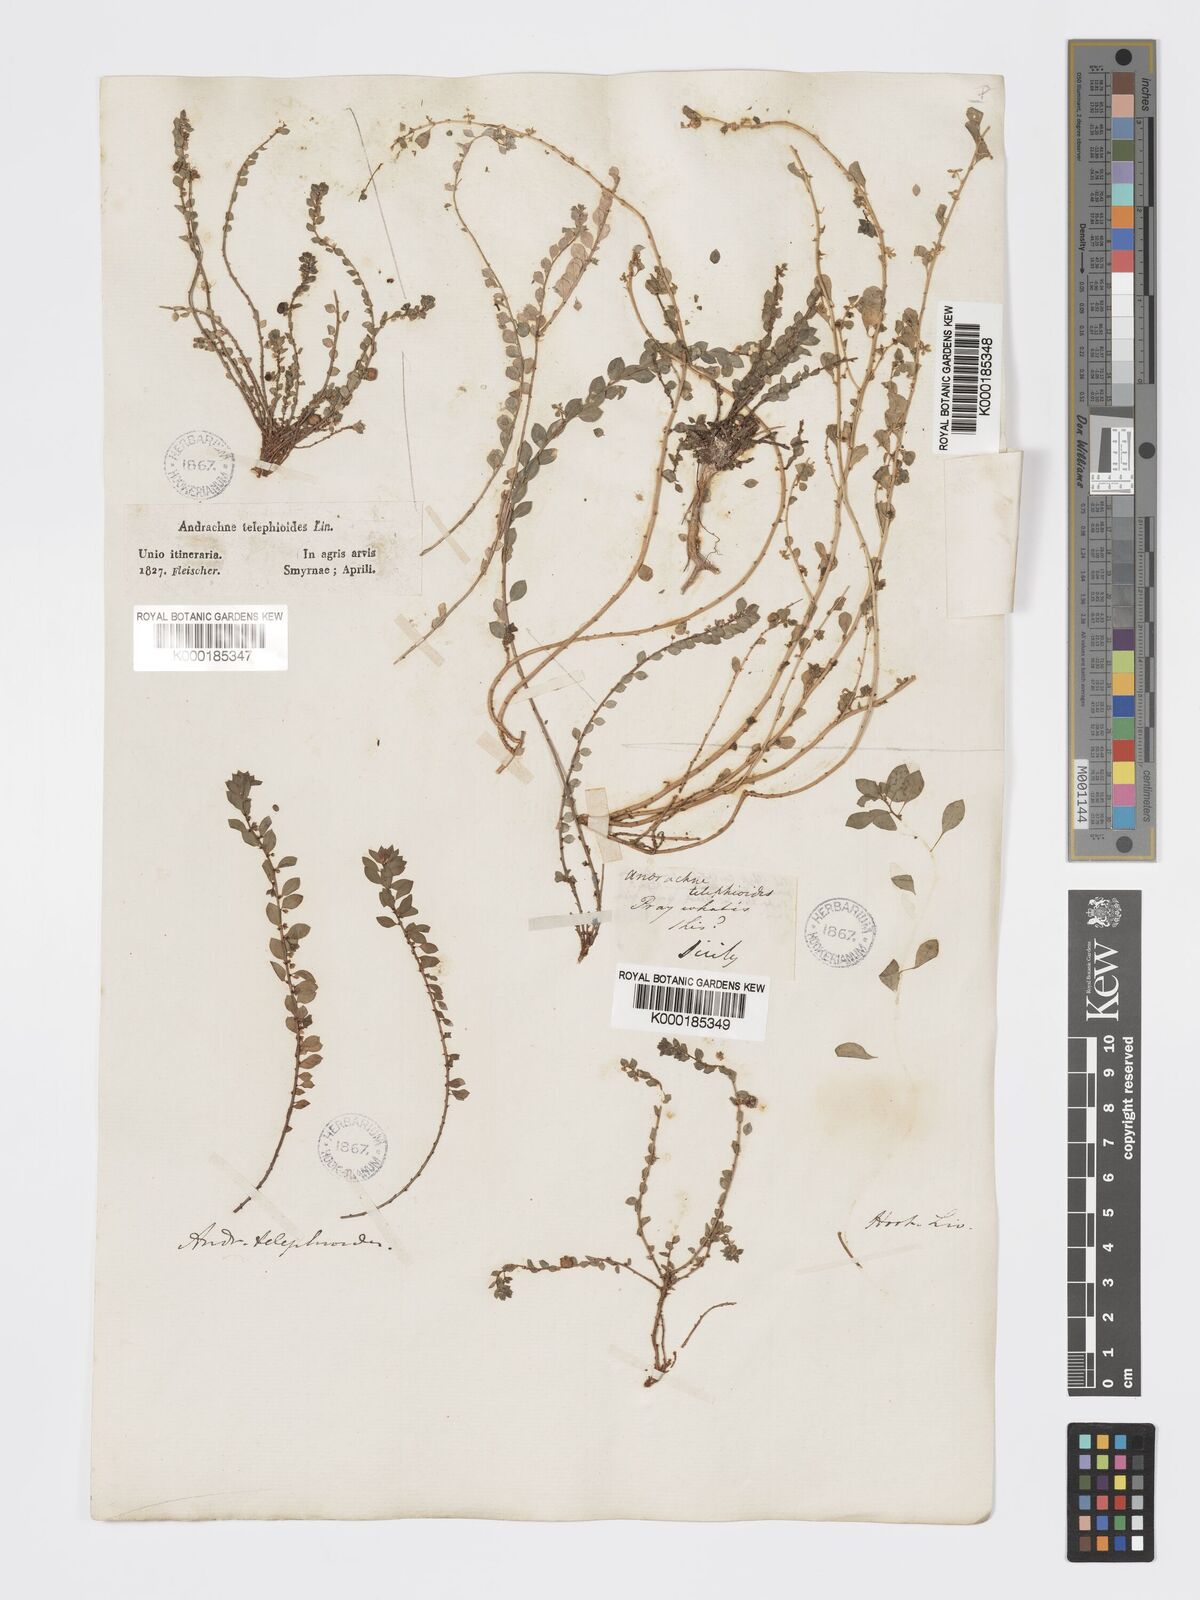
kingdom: Plantae
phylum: Tracheophyta
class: Magnoliopsida
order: Malpighiales
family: Phyllanthaceae
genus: Andrachne
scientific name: Andrachne
